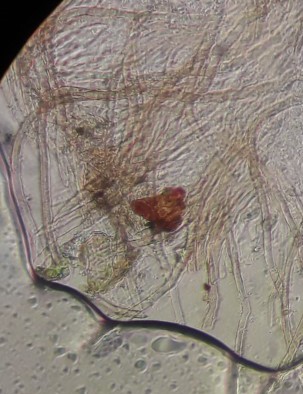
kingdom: Fungi
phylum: Basidiomycota
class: Agaricomycetes
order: Agaricales
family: Niaceae
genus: Merismodes
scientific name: Merismodes
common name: urte-læderskål
